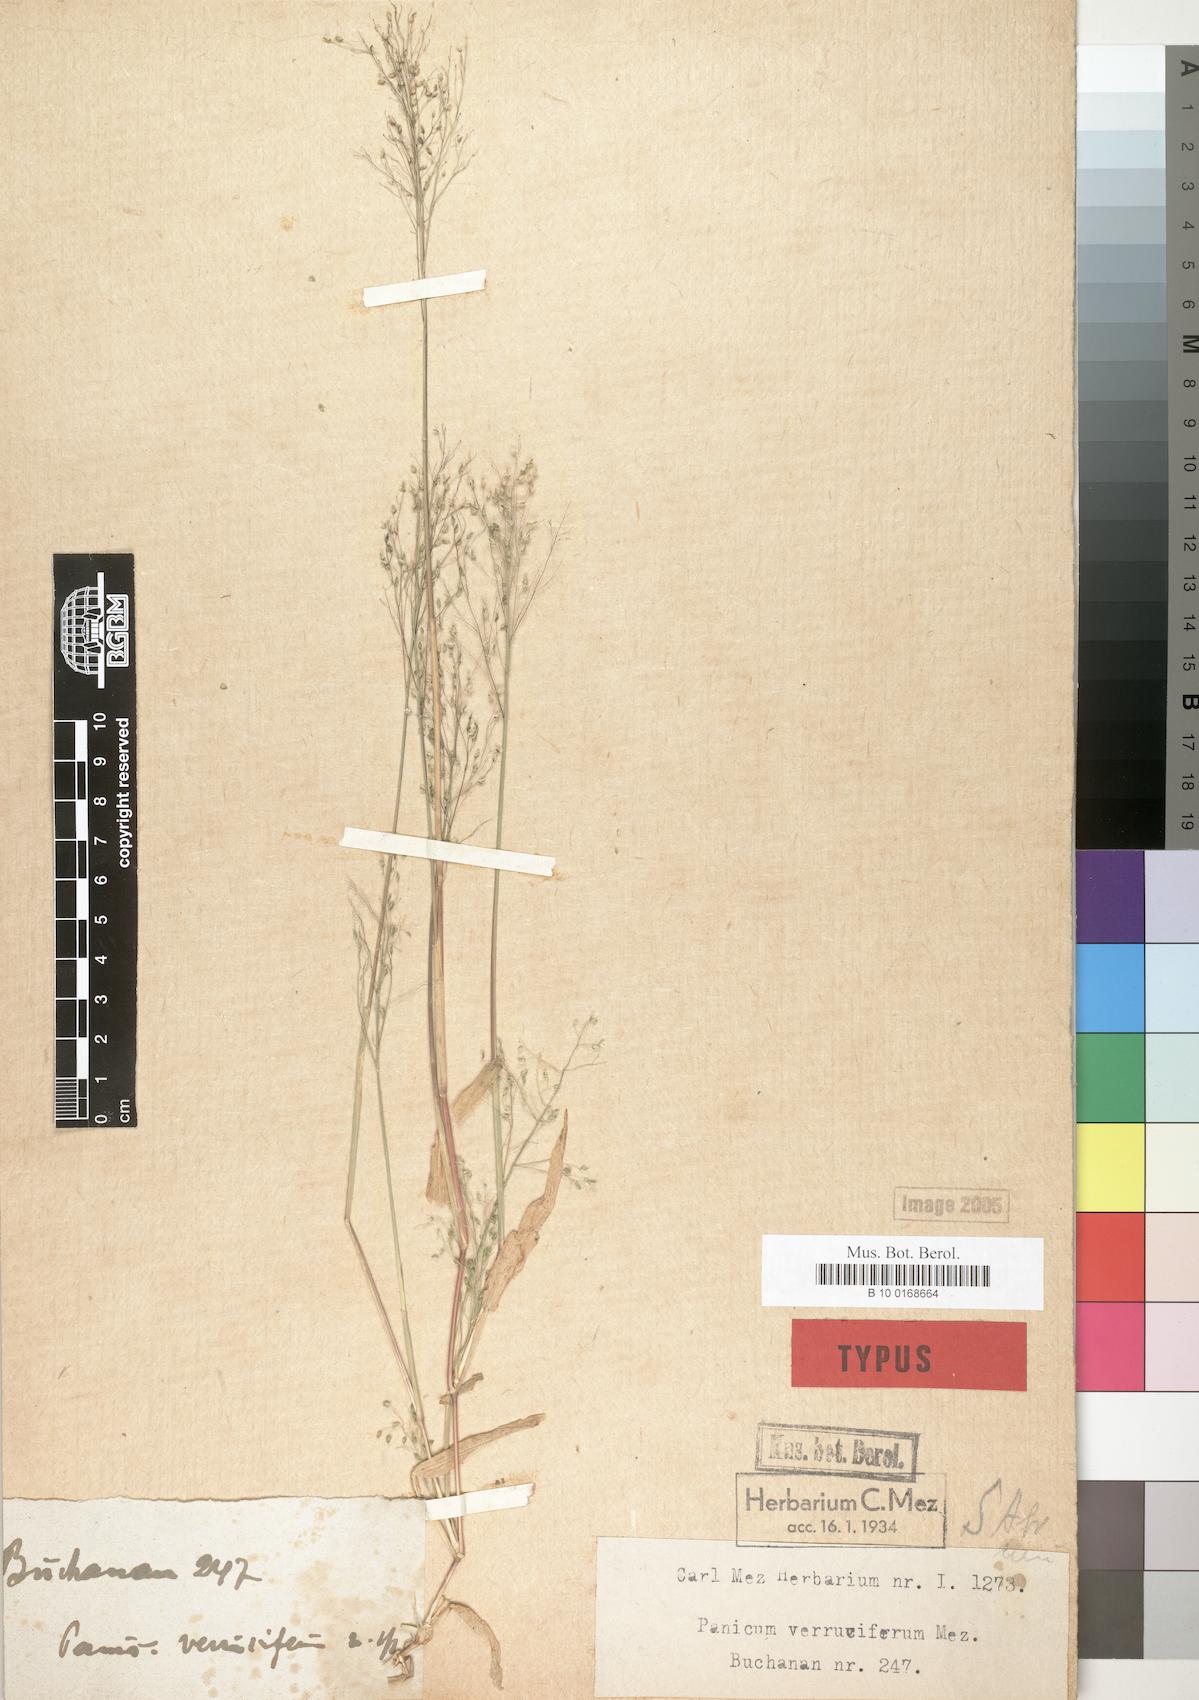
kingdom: Plantae
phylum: Tracheophyta
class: Liliopsida
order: Poales
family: Poaceae
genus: Panicum
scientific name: Panicum sublaetum
